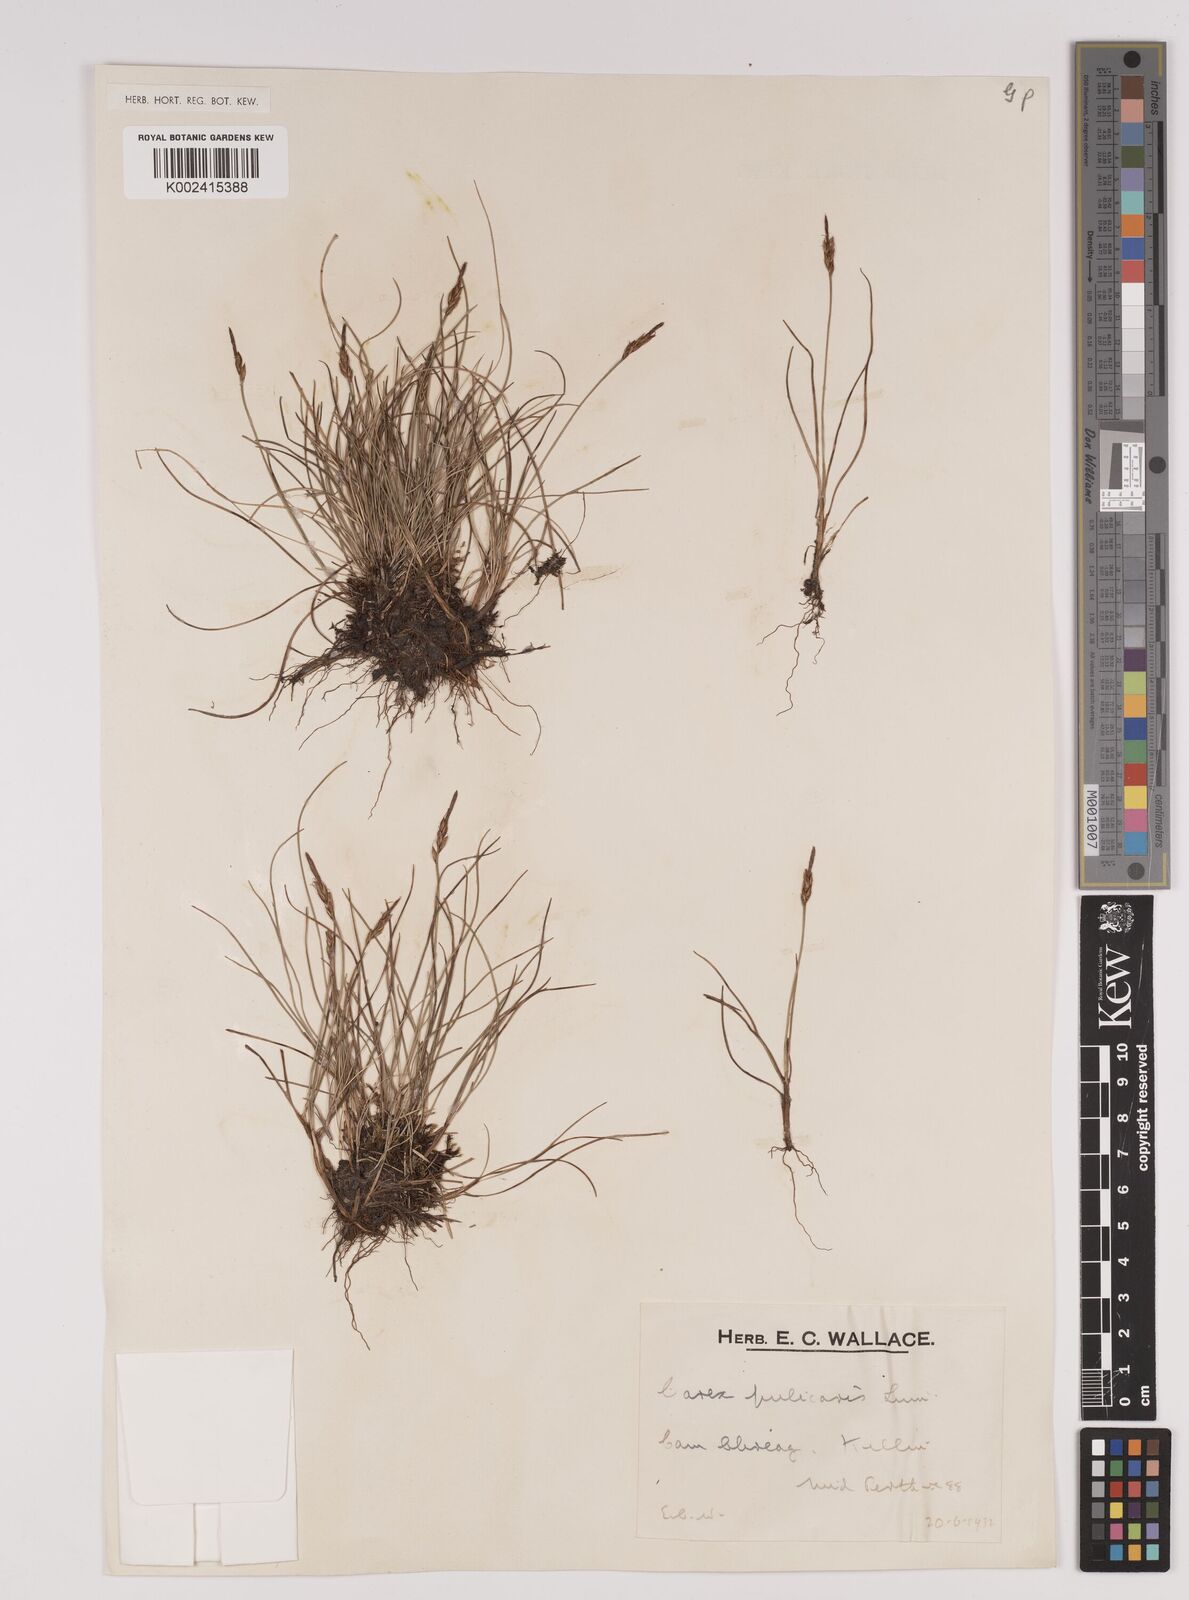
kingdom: Plantae
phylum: Tracheophyta
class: Liliopsida
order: Poales
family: Cyperaceae
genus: Carex
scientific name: Carex pulicaris
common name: Flea sedge
